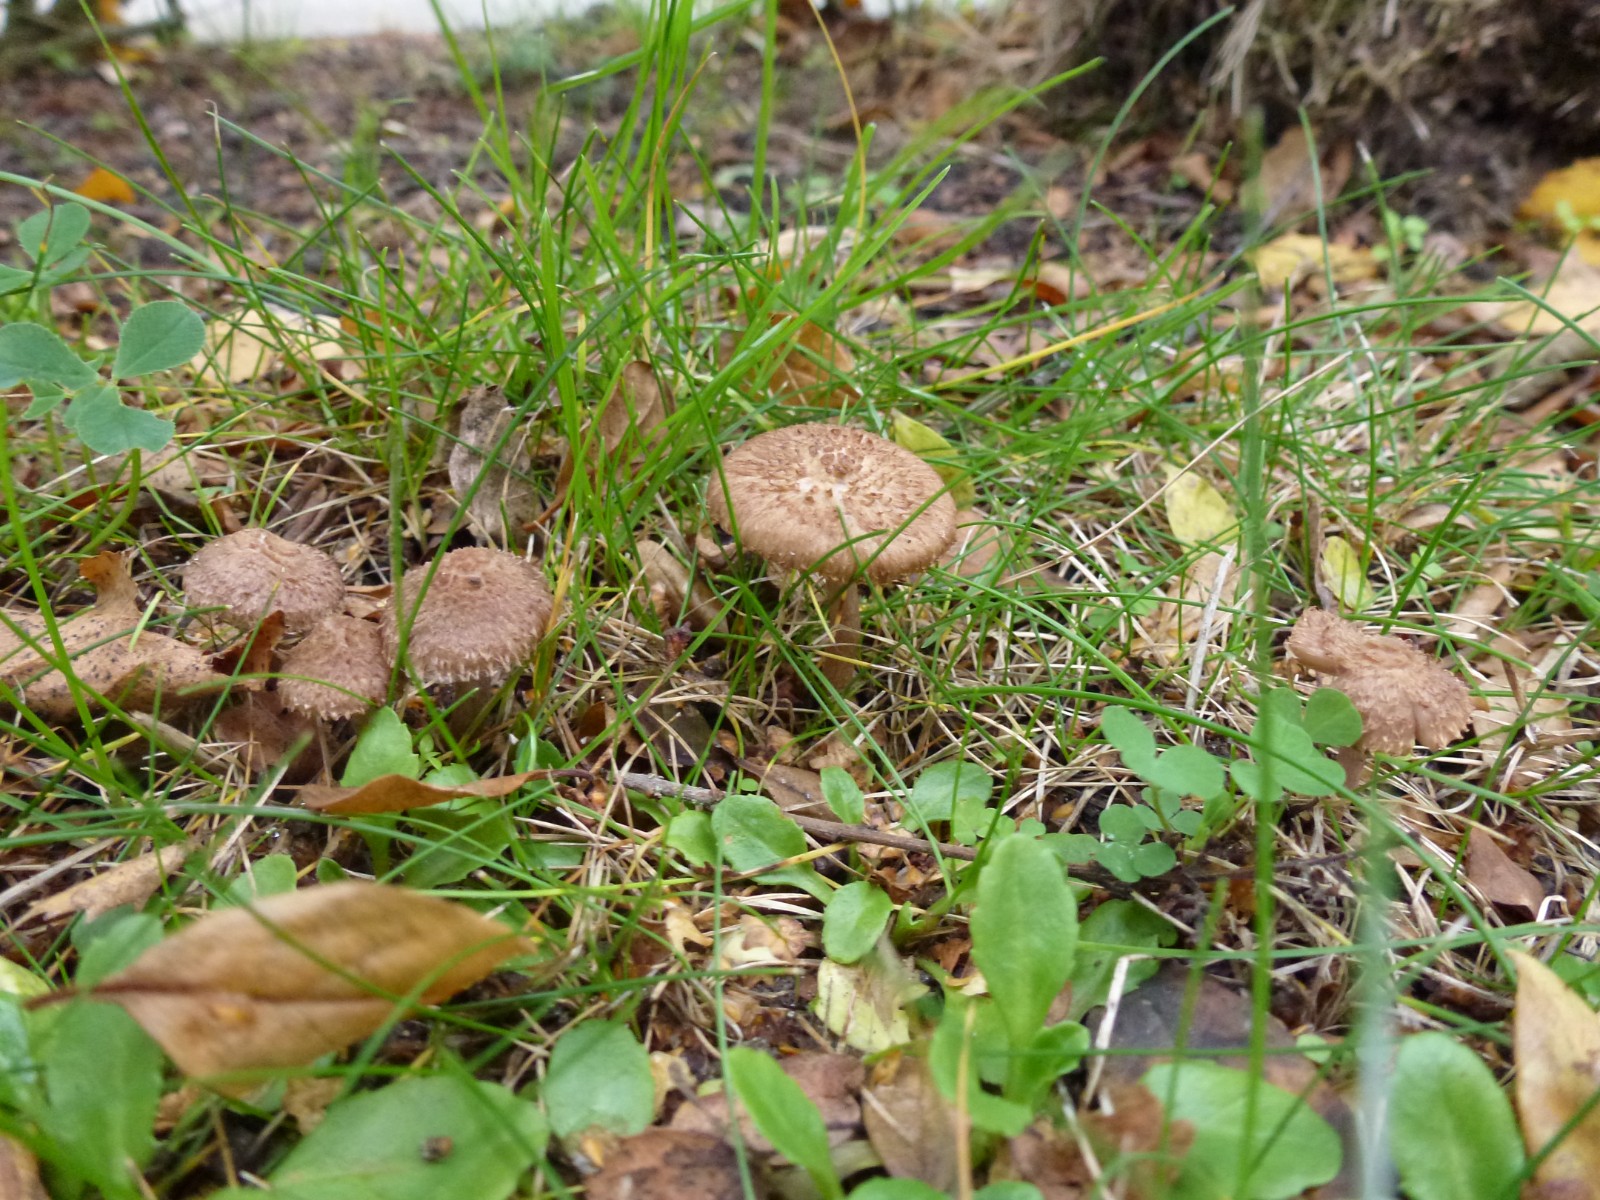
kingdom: Fungi
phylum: Basidiomycota
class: Agaricomycetes
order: Agaricales
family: Inocybaceae
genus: Inocybe
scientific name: Inocybe cincinnata
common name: lillabladet trævlhat
